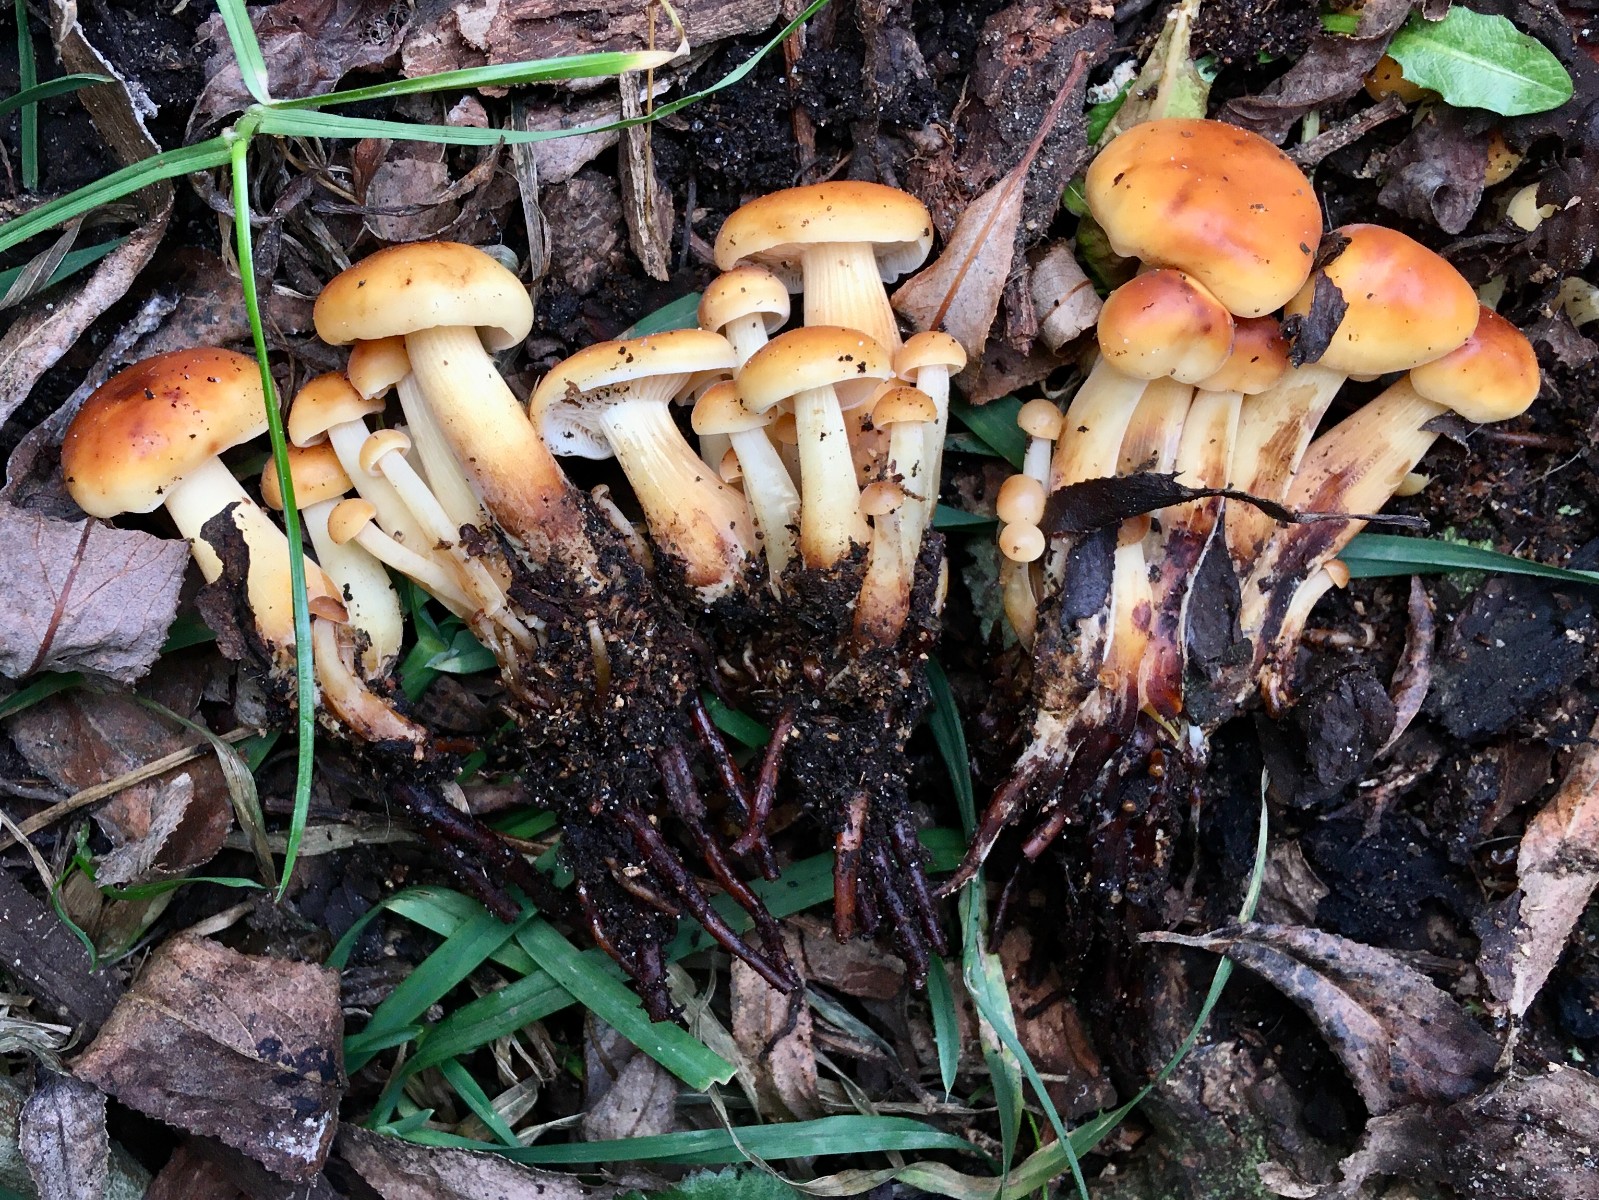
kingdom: Fungi
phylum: Basidiomycota
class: Agaricomycetes
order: Agaricales
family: Physalacriaceae
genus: Flammulina
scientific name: Flammulina
